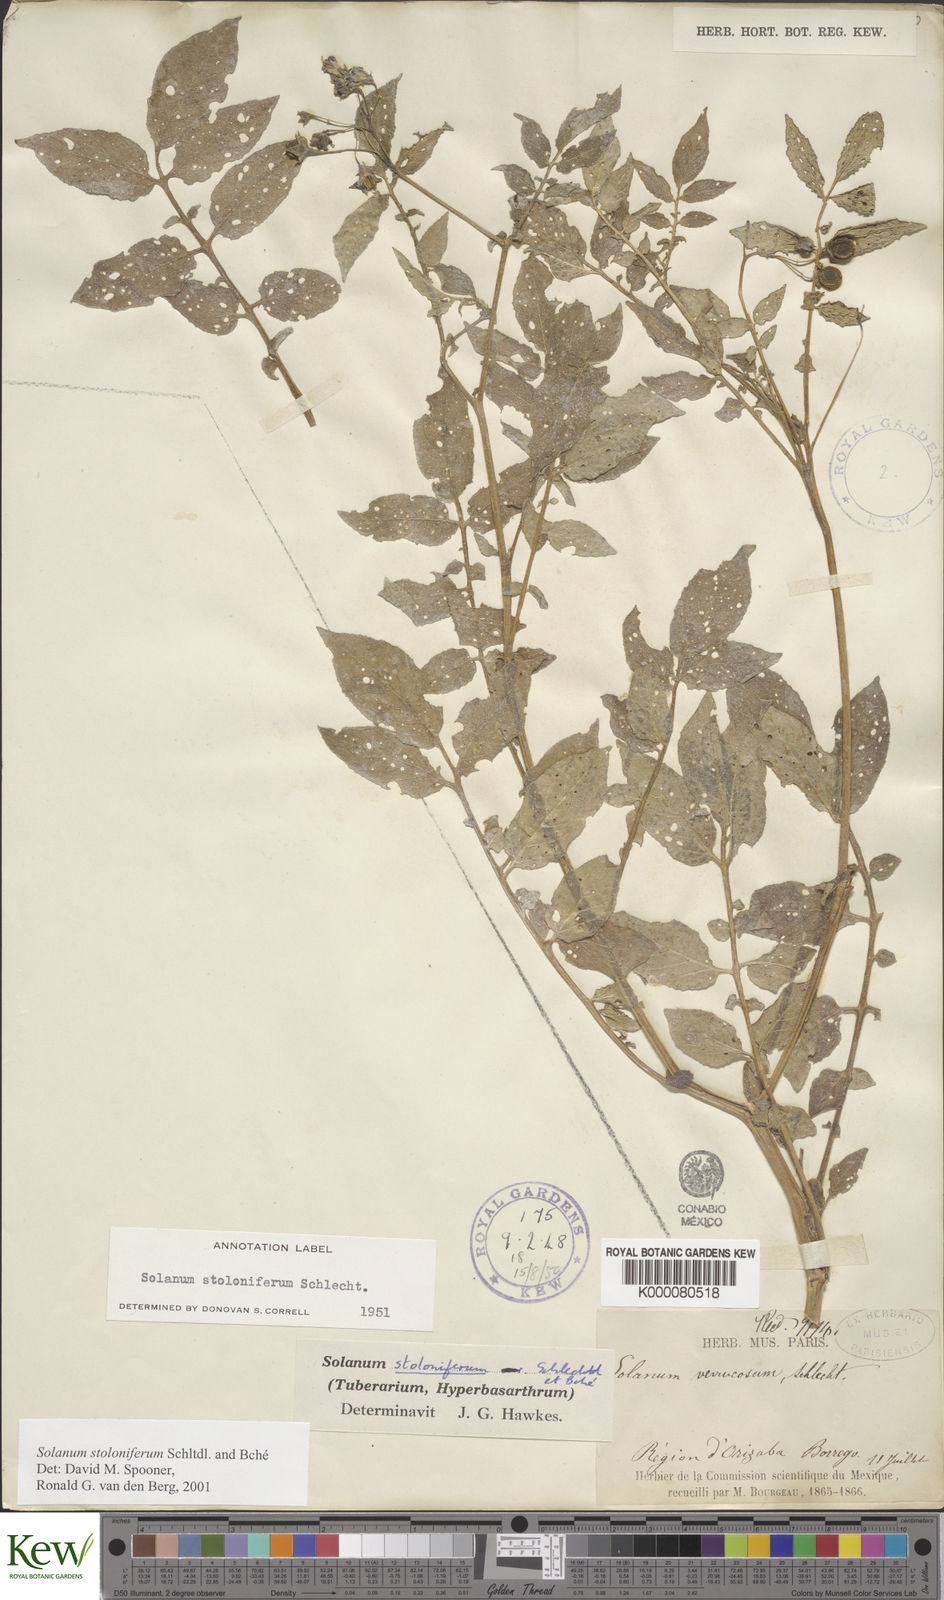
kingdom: Plantae
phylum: Tracheophyta
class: Magnoliopsida
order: Solanales
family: Solanaceae
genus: Solanum
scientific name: Solanum stoloniferum
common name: Fendler's nighshade
